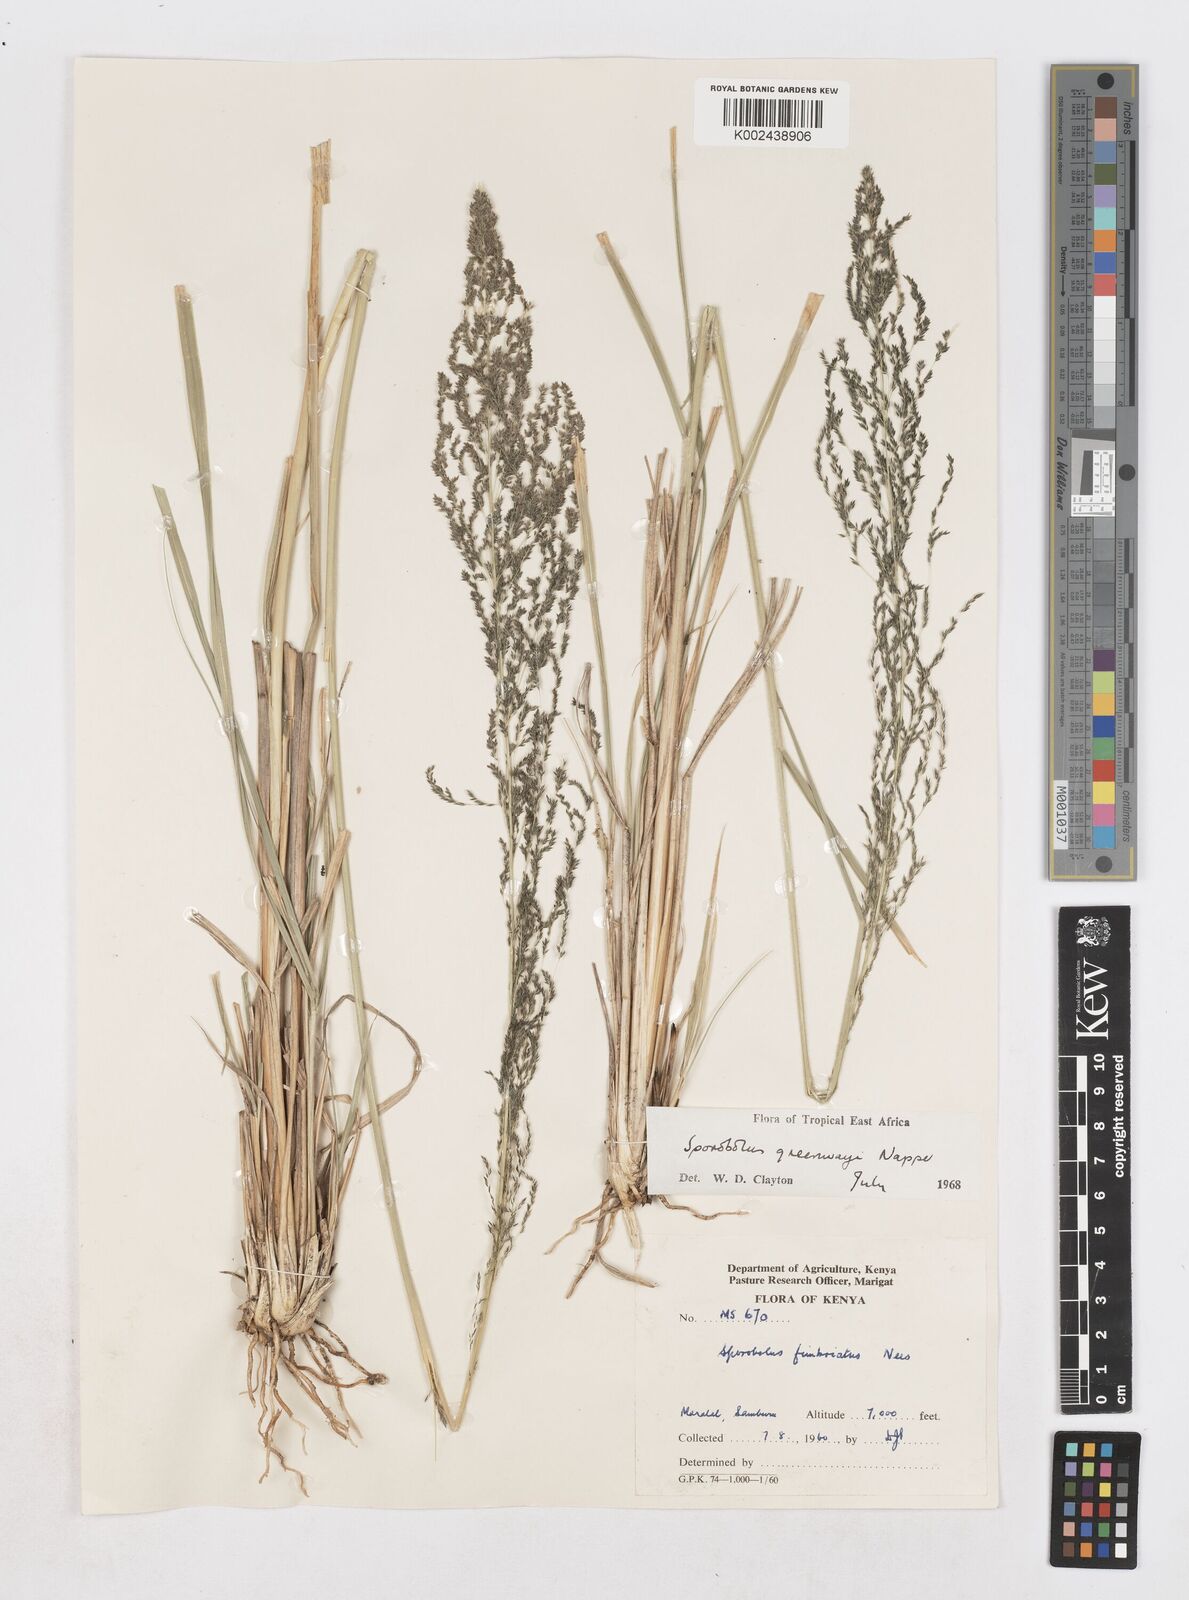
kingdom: Plantae
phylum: Tracheophyta
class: Liliopsida
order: Poales
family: Poaceae
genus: Sporobolus
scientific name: Sporobolus macranthelus
